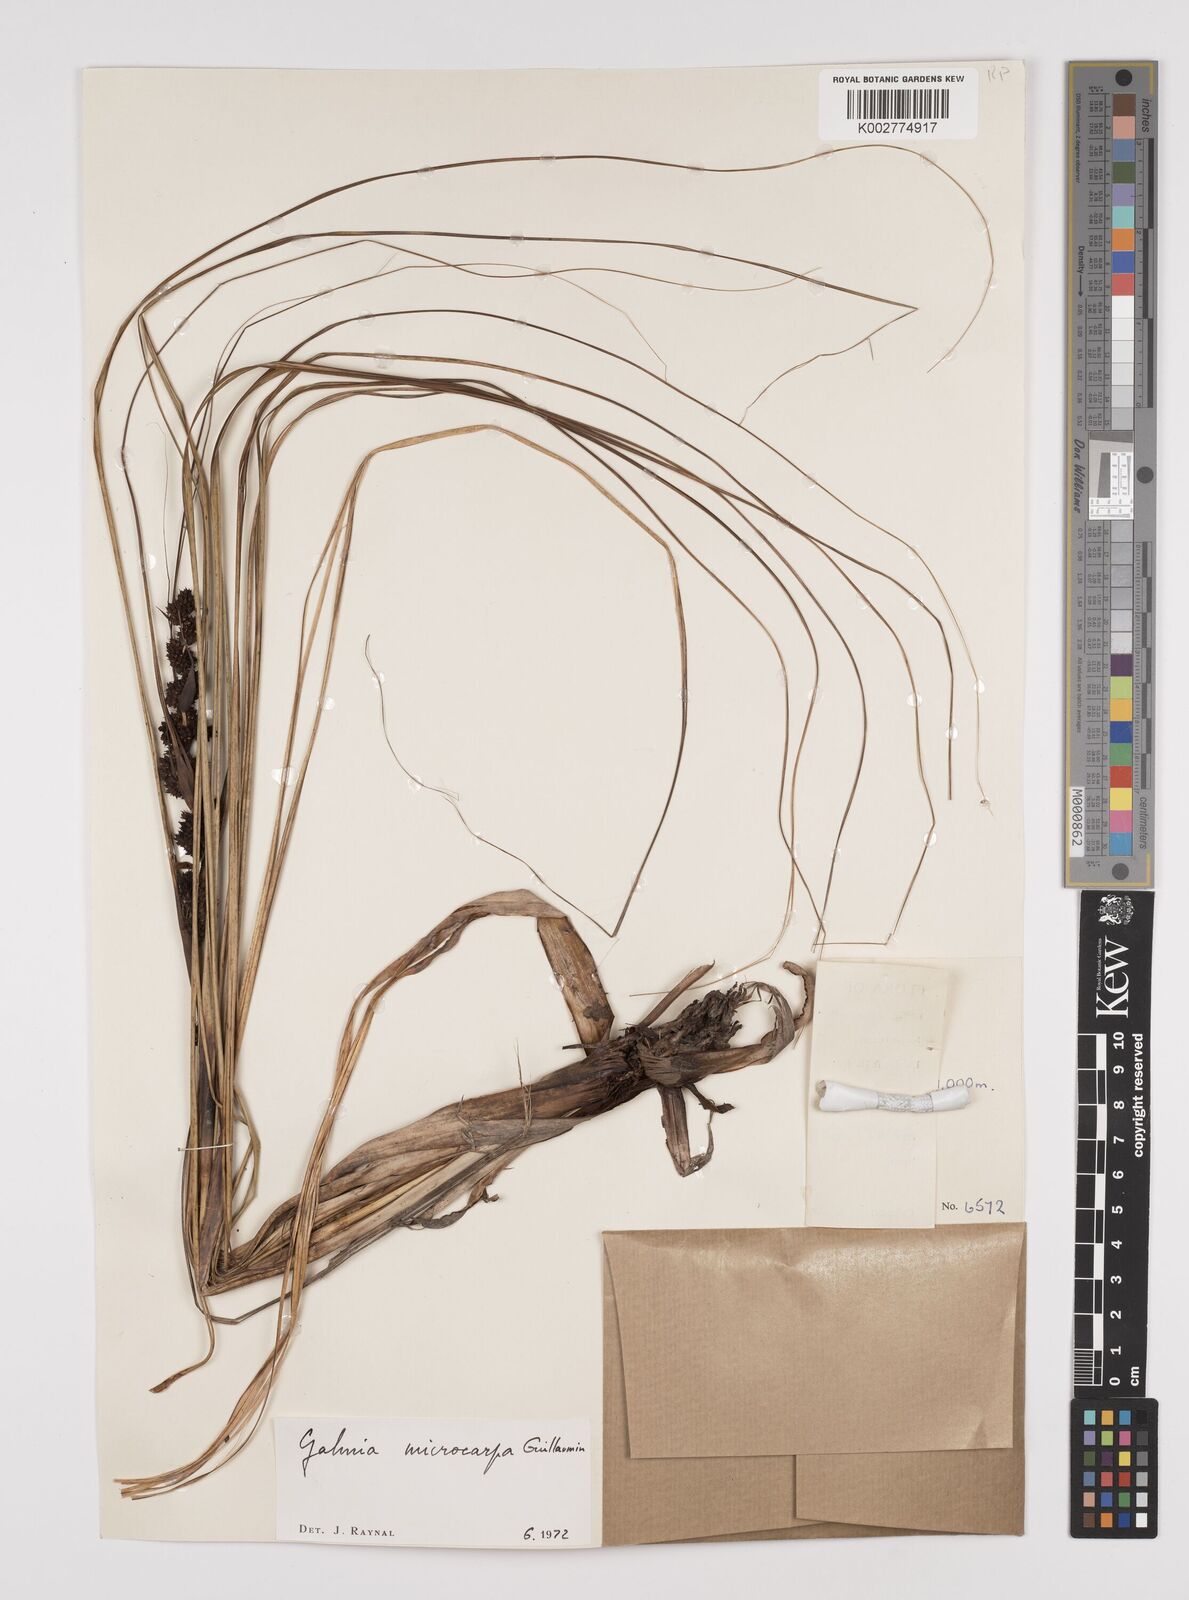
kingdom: Plantae
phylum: Tracheophyta
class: Liliopsida
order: Poales
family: Cyperaceae
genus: Gahnia
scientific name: Gahnia microcarpa
